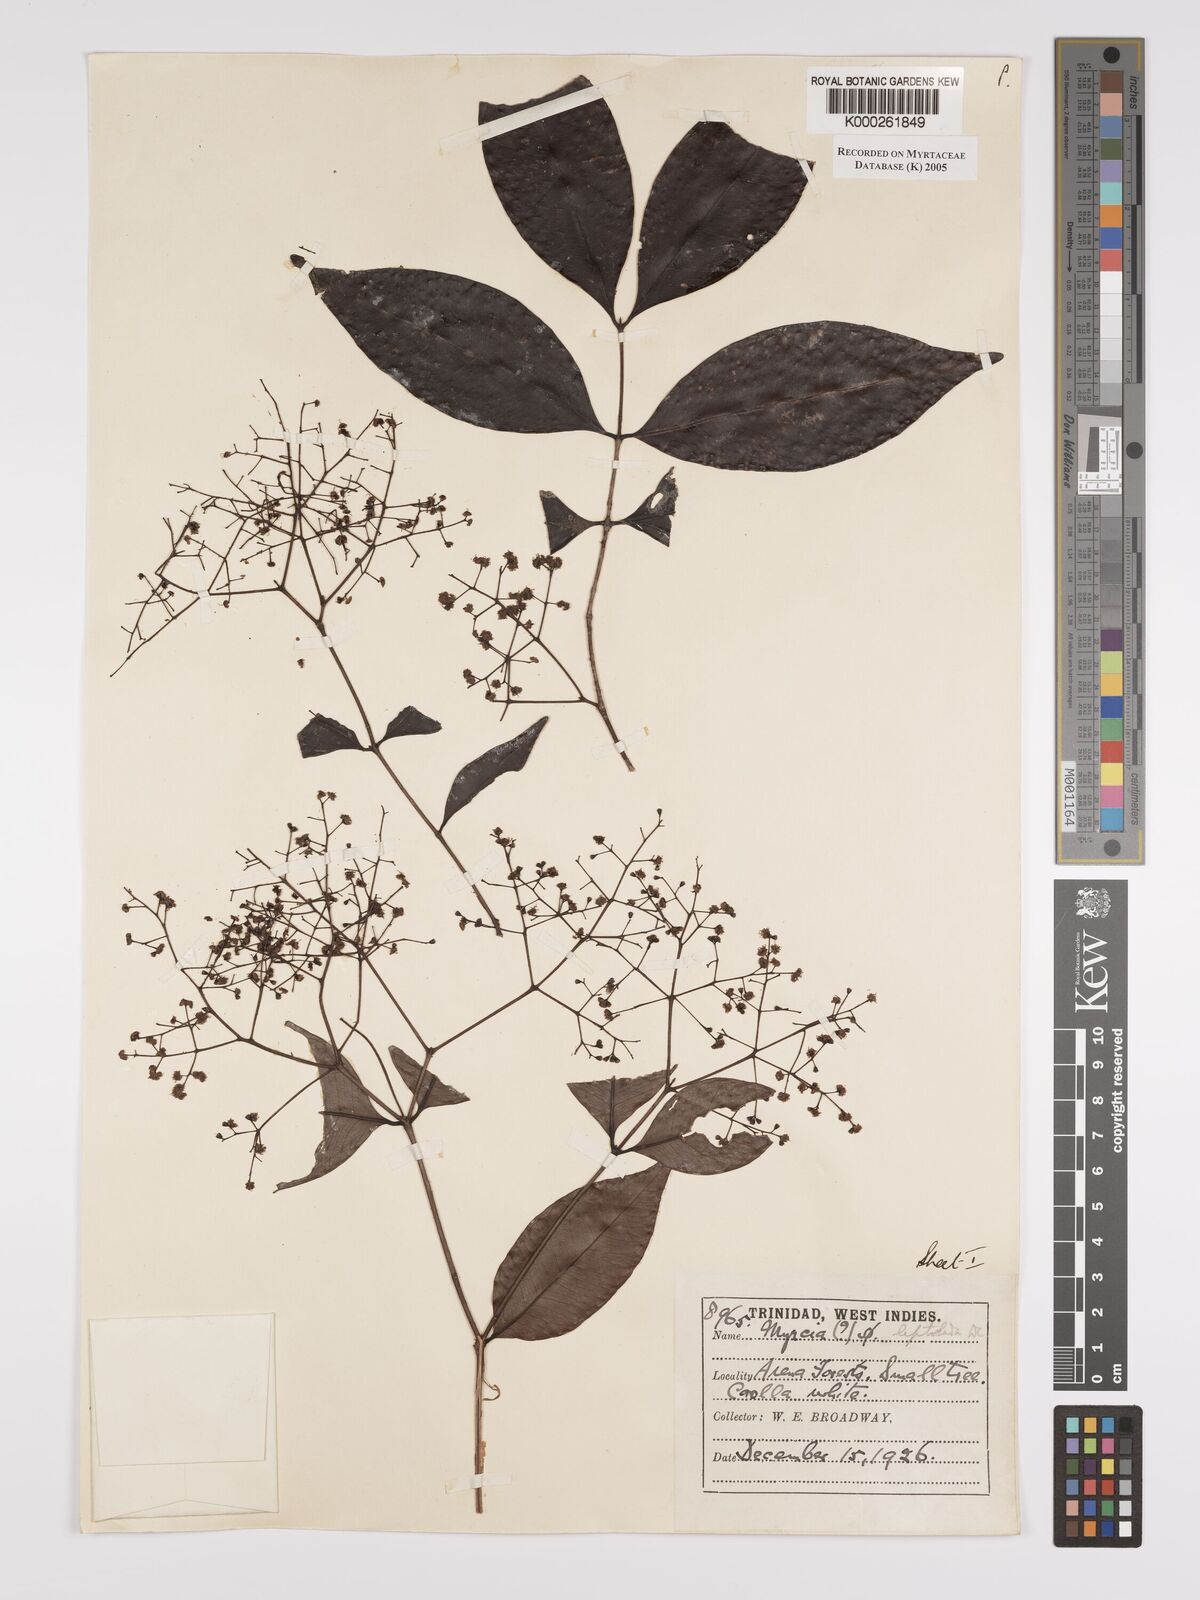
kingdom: Plantae
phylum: Tracheophyta
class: Magnoliopsida
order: Myrtales
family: Myrtaceae
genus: Myrcia
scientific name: Myrcia amazonica
